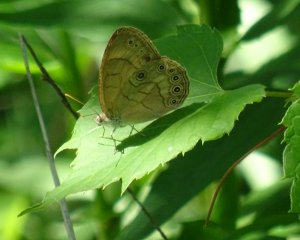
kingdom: Animalia
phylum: Arthropoda
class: Insecta
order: Lepidoptera
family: Nymphalidae
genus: Lethe
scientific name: Lethe eurydice
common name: Appalachian Eyed Brown
